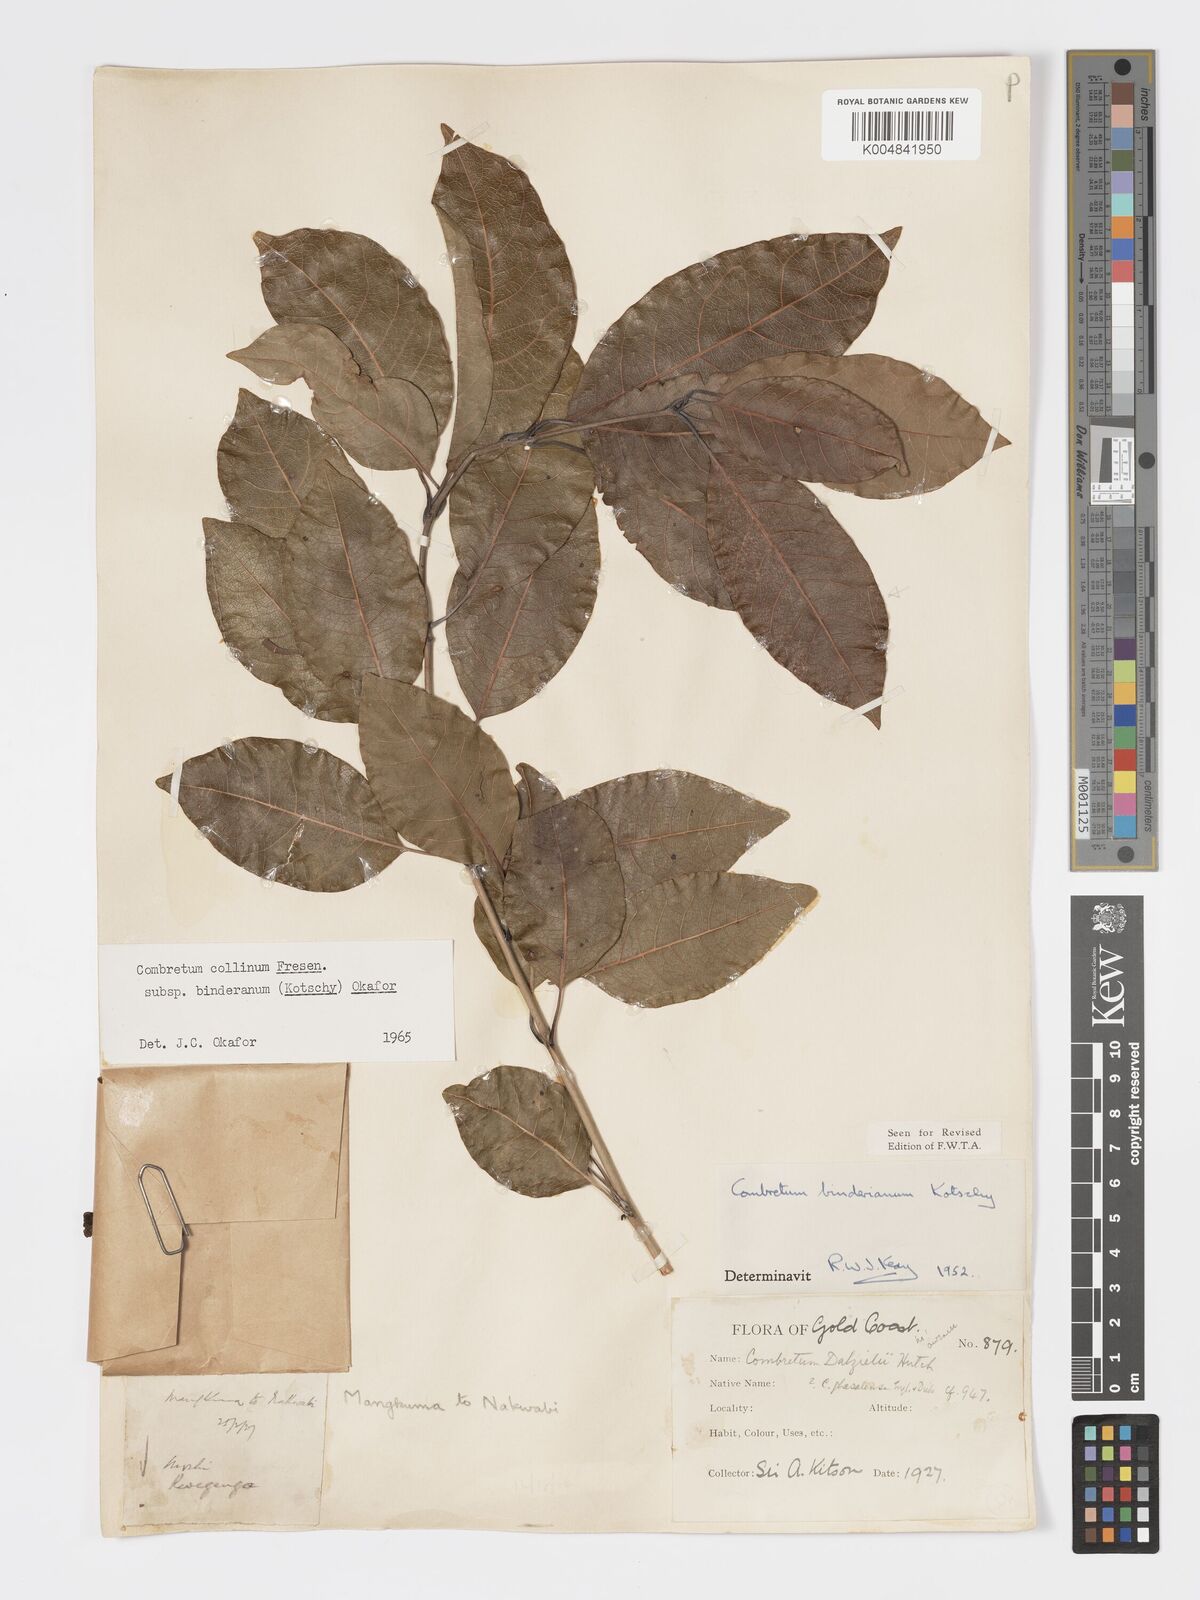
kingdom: Plantae
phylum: Tracheophyta
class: Magnoliopsida
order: Myrtales
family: Combretaceae
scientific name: Combretaceae
